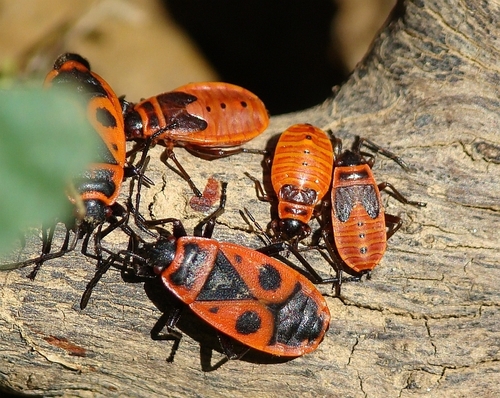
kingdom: Animalia
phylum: Arthropoda
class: Insecta
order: Hemiptera
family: Pyrrhocoridae
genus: Pyrrhocoris
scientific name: Pyrrhocoris apterus
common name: Firebug
